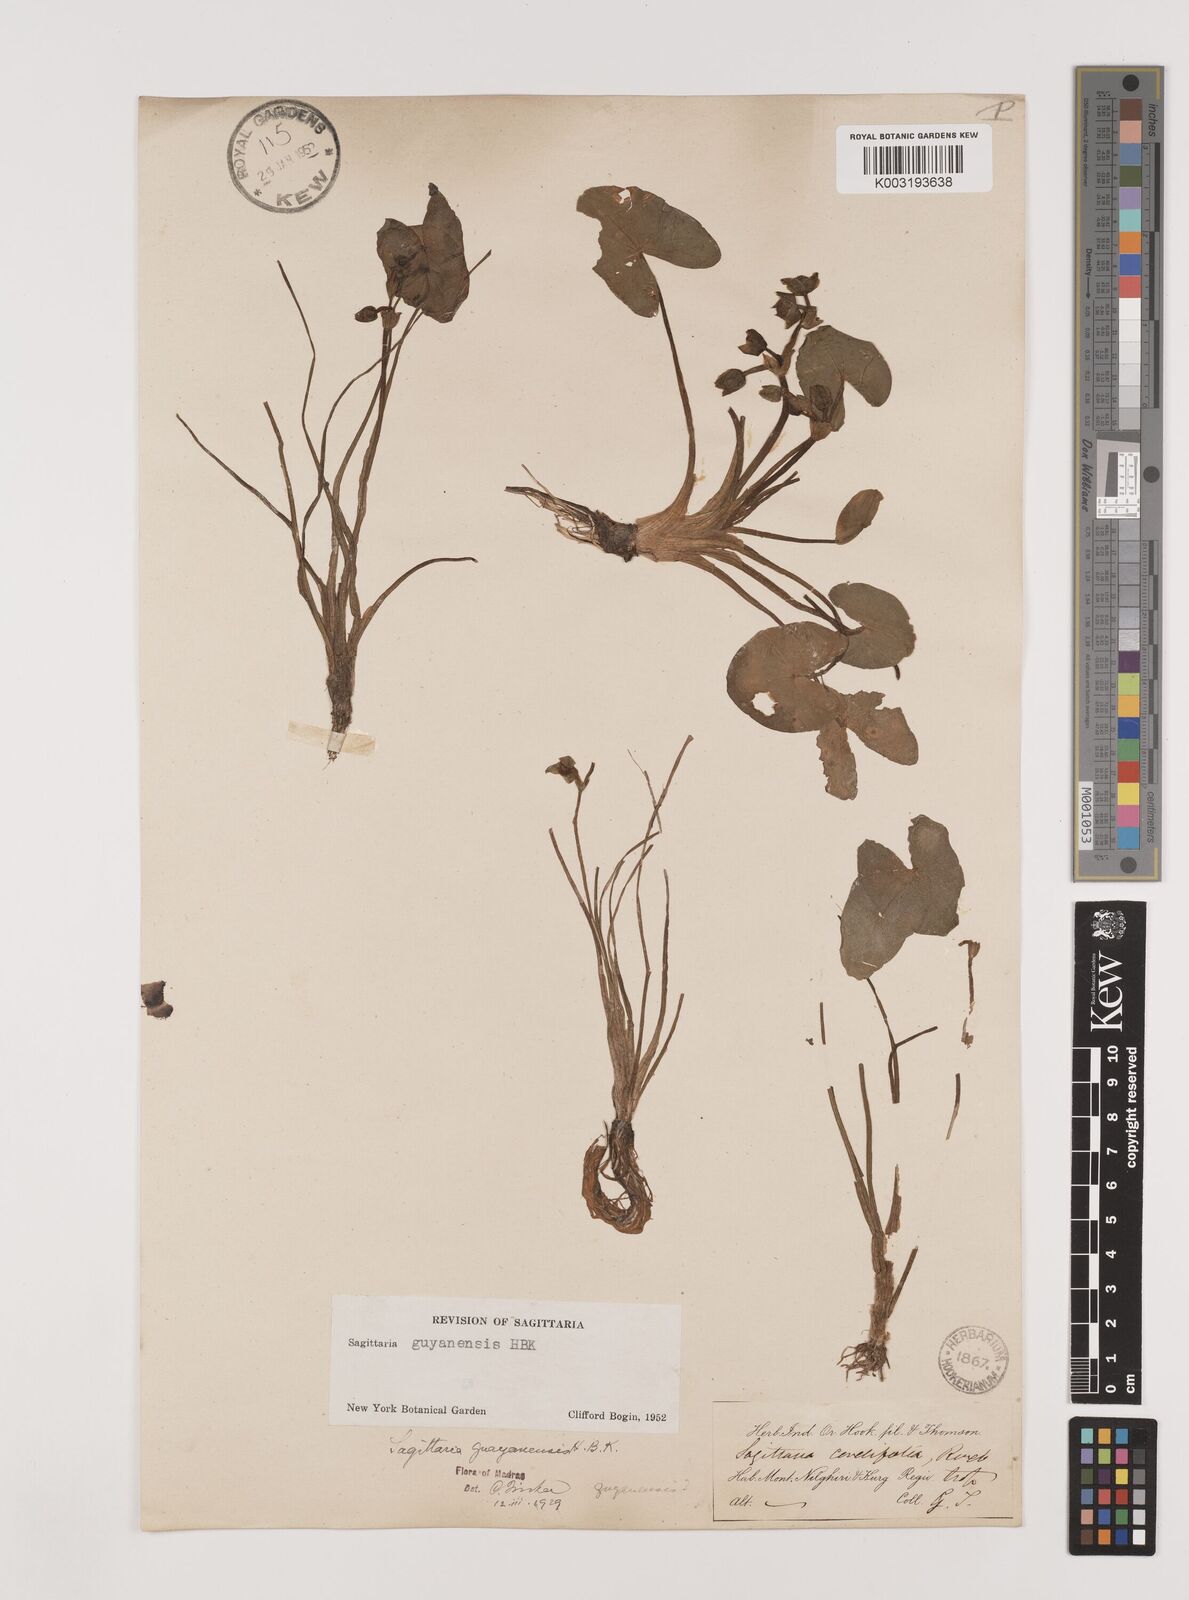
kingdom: Plantae
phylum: Tracheophyta
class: Liliopsida
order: Alismatales
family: Alismataceae
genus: Sagittaria
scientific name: Sagittaria guayanensis
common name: Guyanese arrowhead
